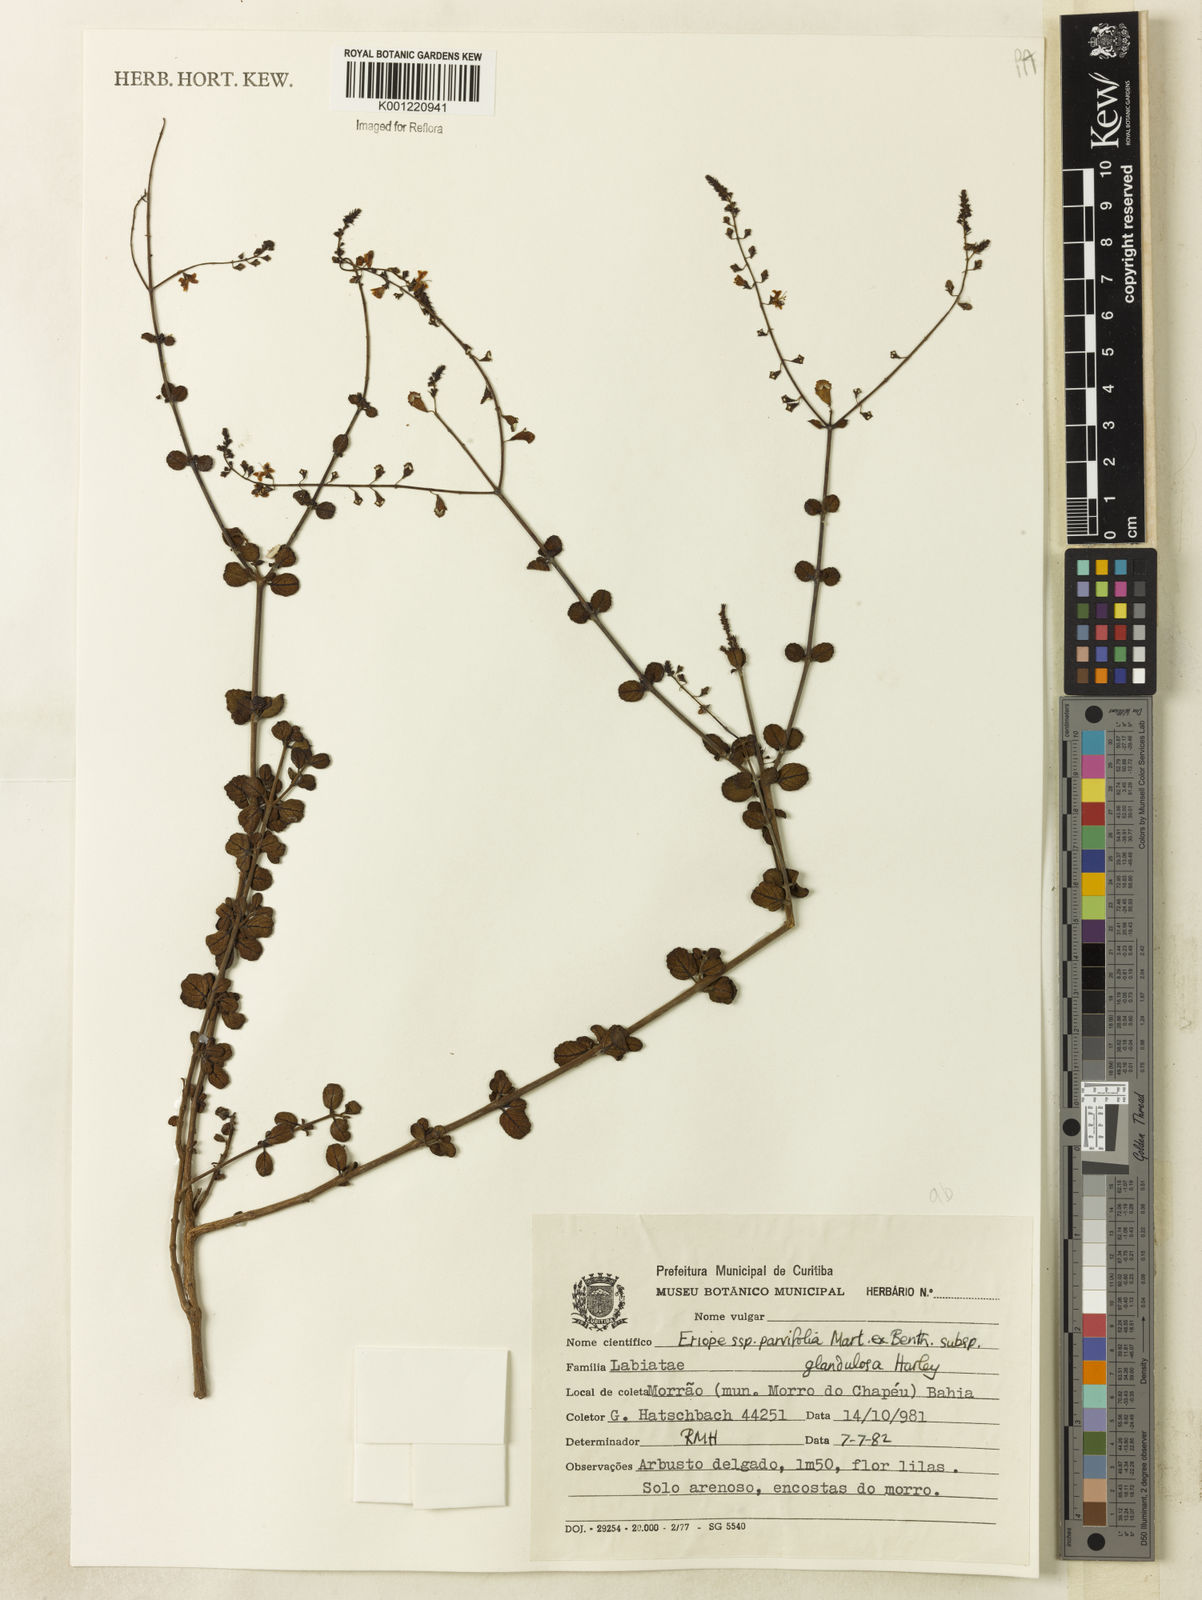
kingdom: Plantae
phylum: Tracheophyta
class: Magnoliopsida
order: Lamiales
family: Lamiaceae
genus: Eriope
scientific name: Eriope glandulosa
